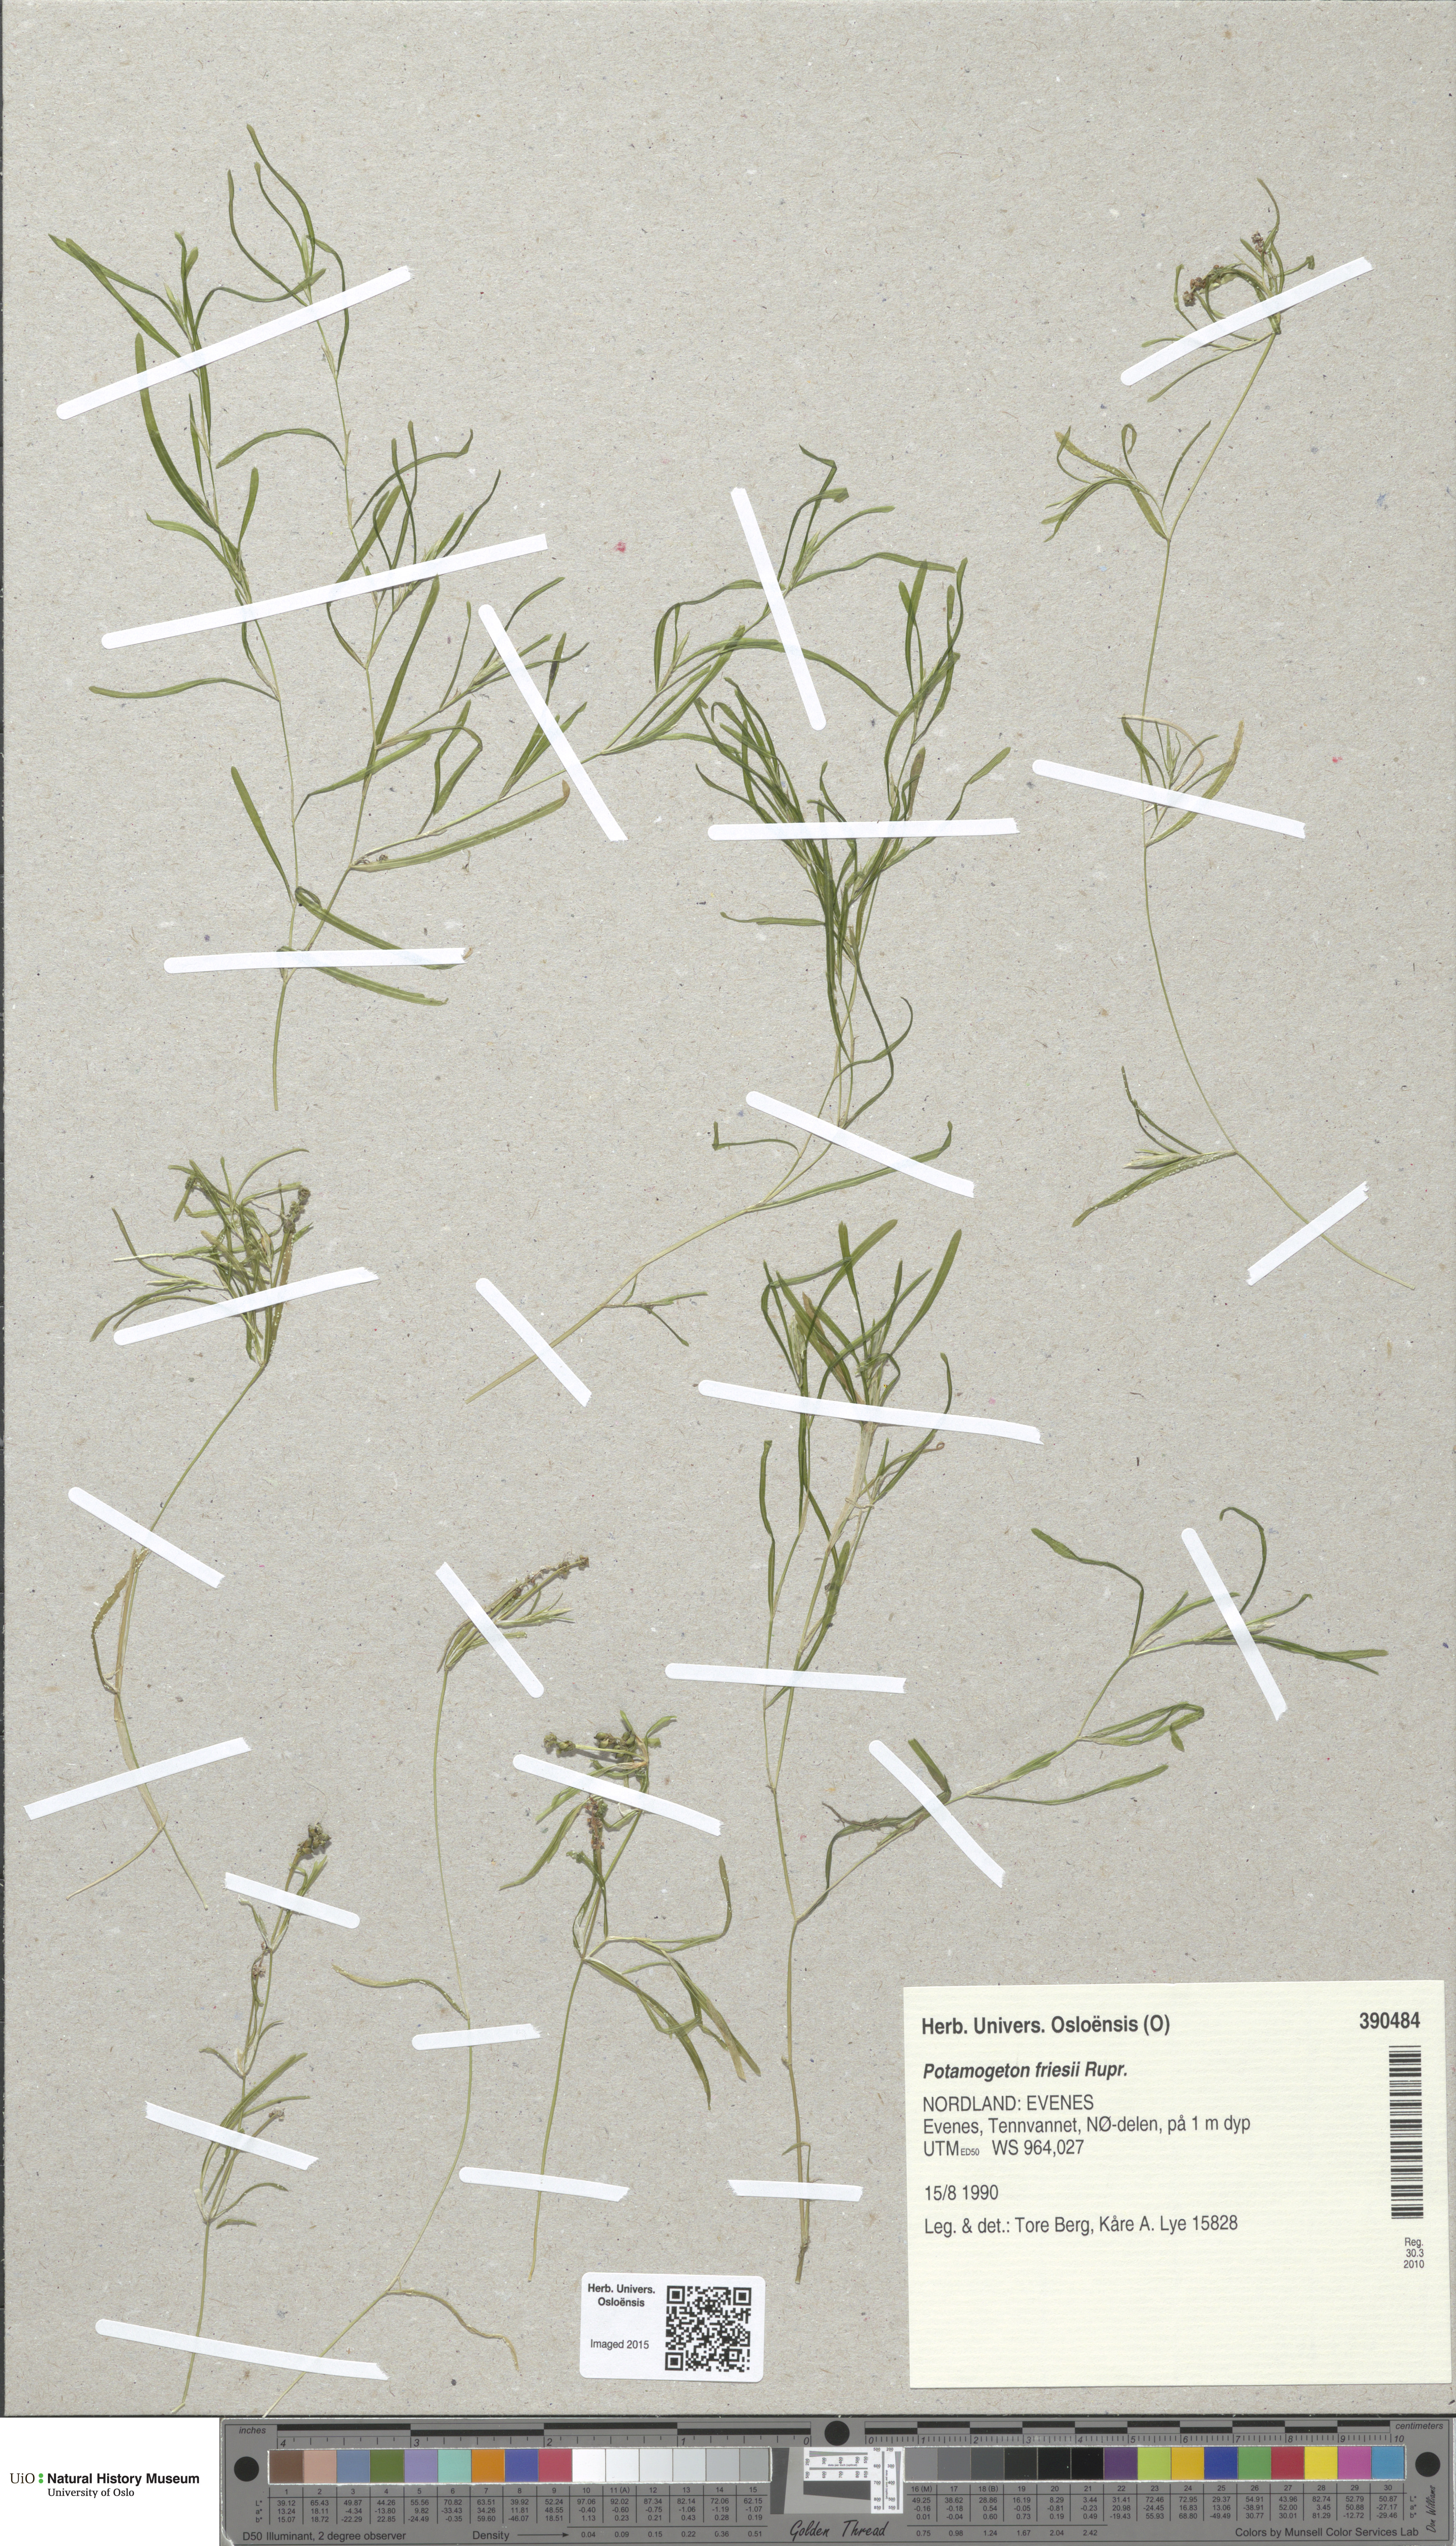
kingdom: Plantae
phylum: Tracheophyta
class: Liliopsida
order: Alismatales
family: Potamogetonaceae
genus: Potamogeton
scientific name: Potamogeton friesii
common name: Flat-stalked pondweed
